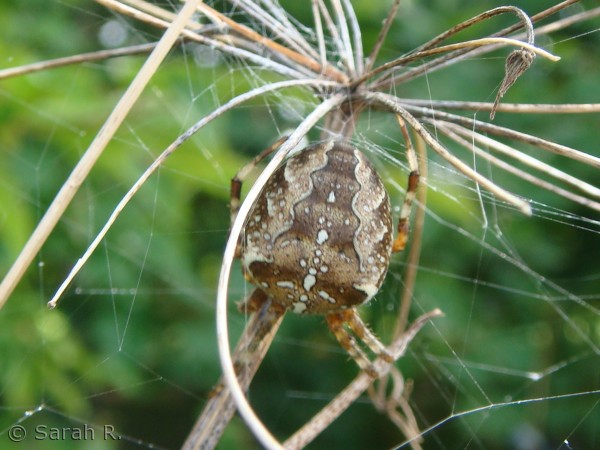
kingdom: Animalia
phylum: Arthropoda
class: Arachnida
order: Araneae
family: Araneidae
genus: Araneus
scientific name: Araneus diadematus
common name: Korsedderkop
